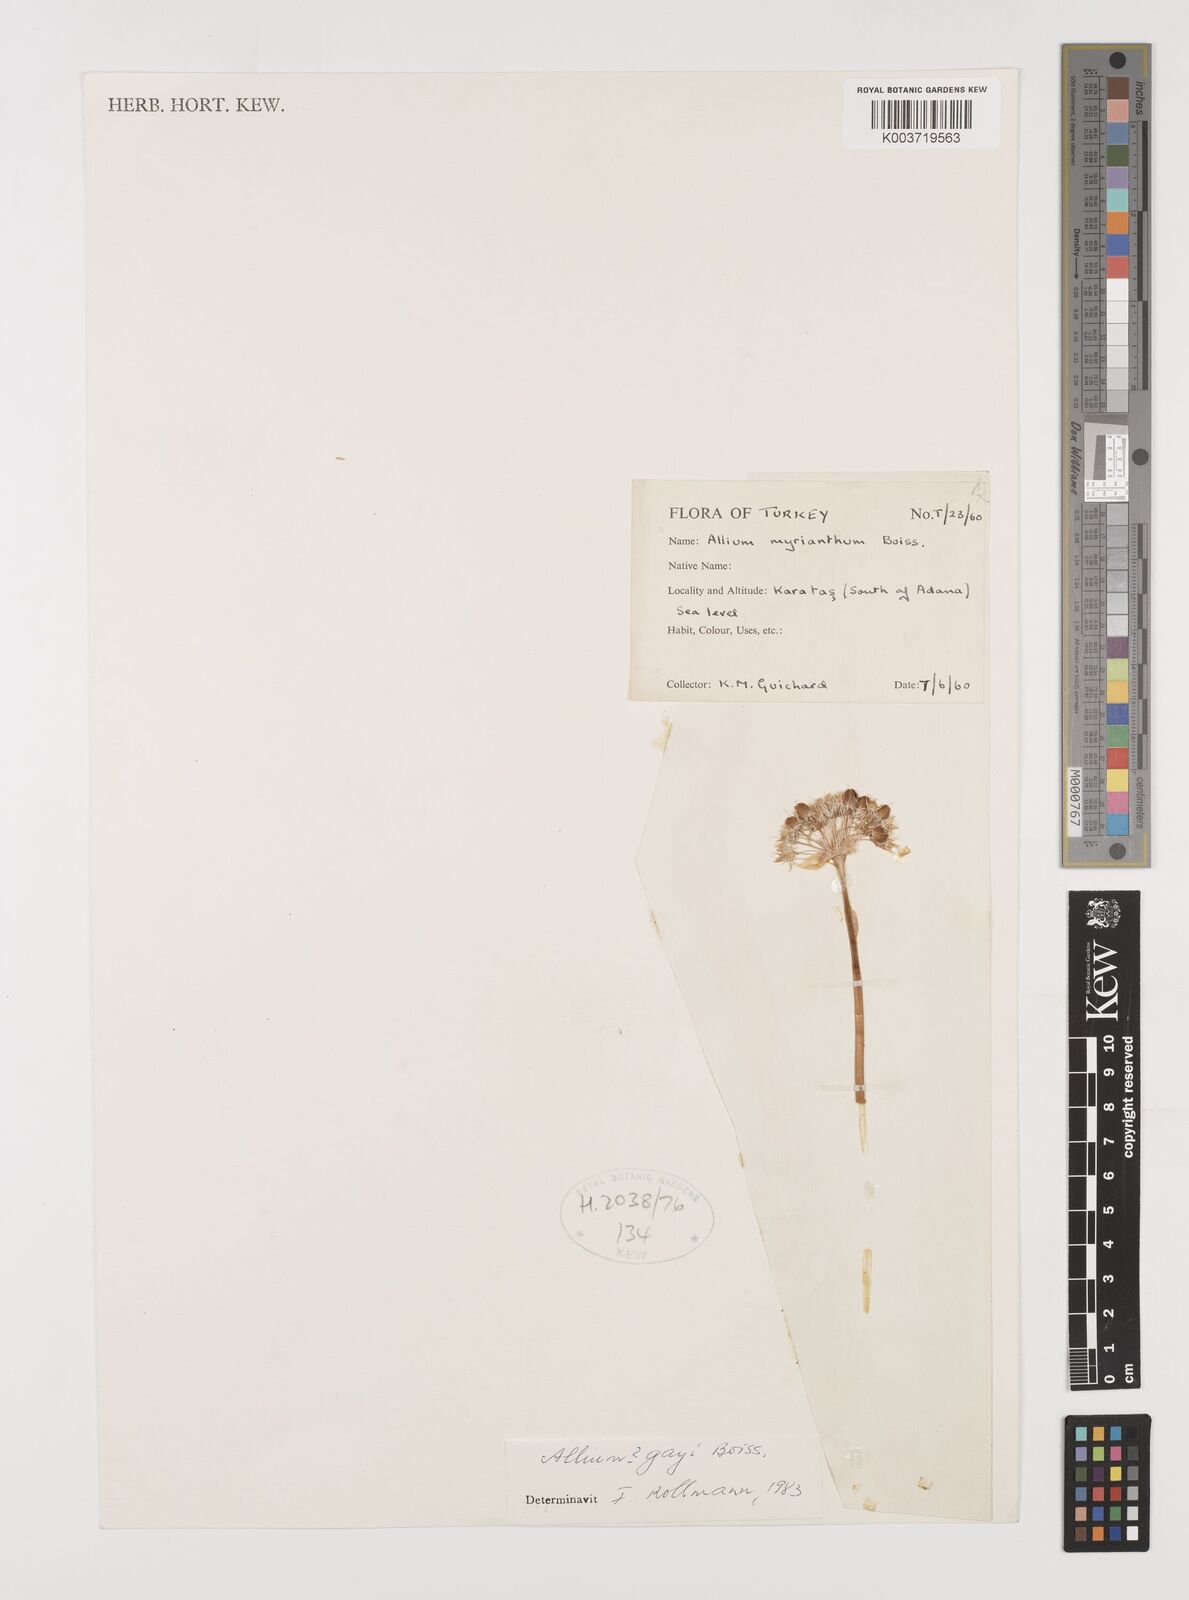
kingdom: Plantae
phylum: Tracheophyta
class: Liliopsida
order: Asparagales
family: Amaryllidaceae
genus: Allium
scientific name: Allium orientale
